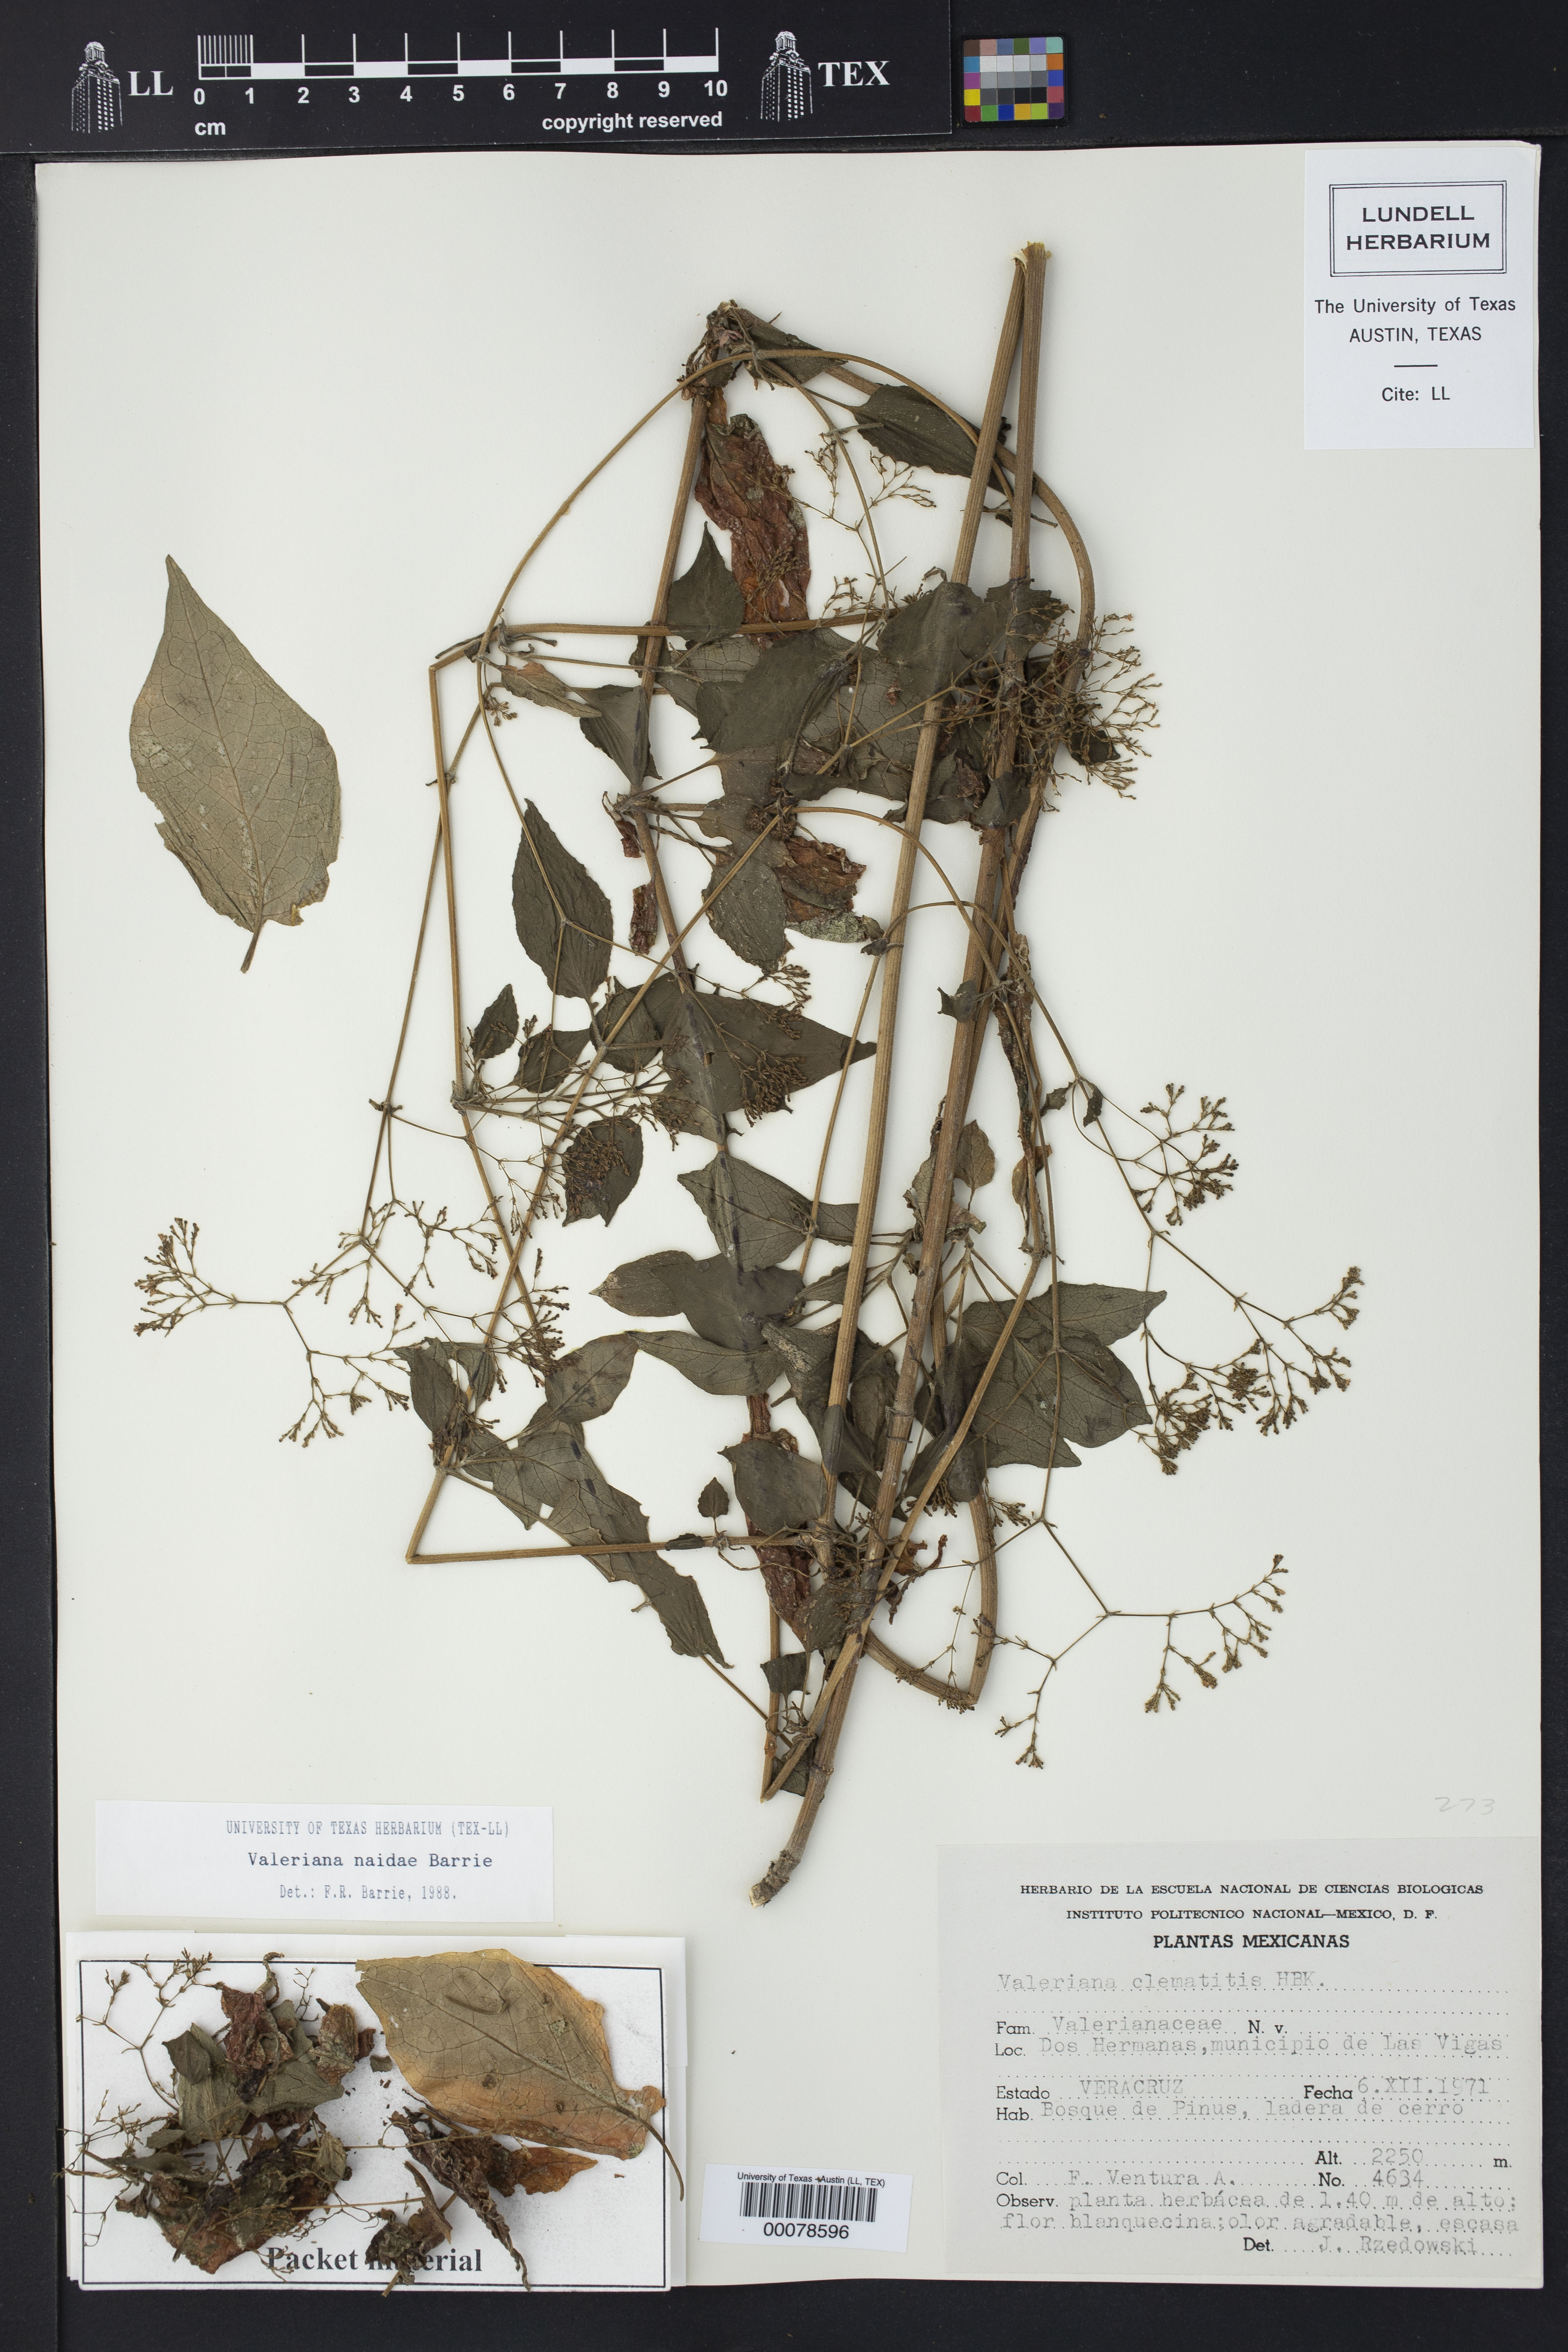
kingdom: Plantae
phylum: Tracheophyta
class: Magnoliopsida
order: Dipsacales
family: Caprifoliaceae
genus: Valeriana
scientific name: Valeriana naidae
